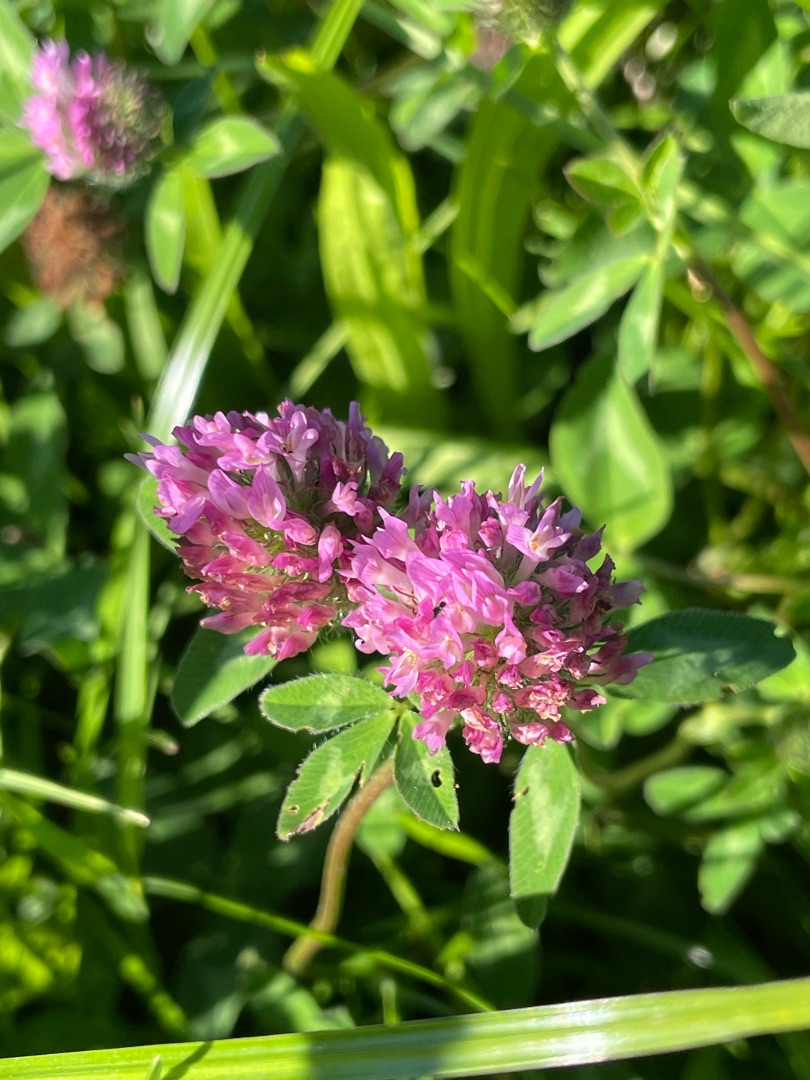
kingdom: Plantae
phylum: Tracheophyta
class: Magnoliopsida
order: Fabales
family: Fabaceae
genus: Trifolium
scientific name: Trifolium pratense
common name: Rød-kløver
